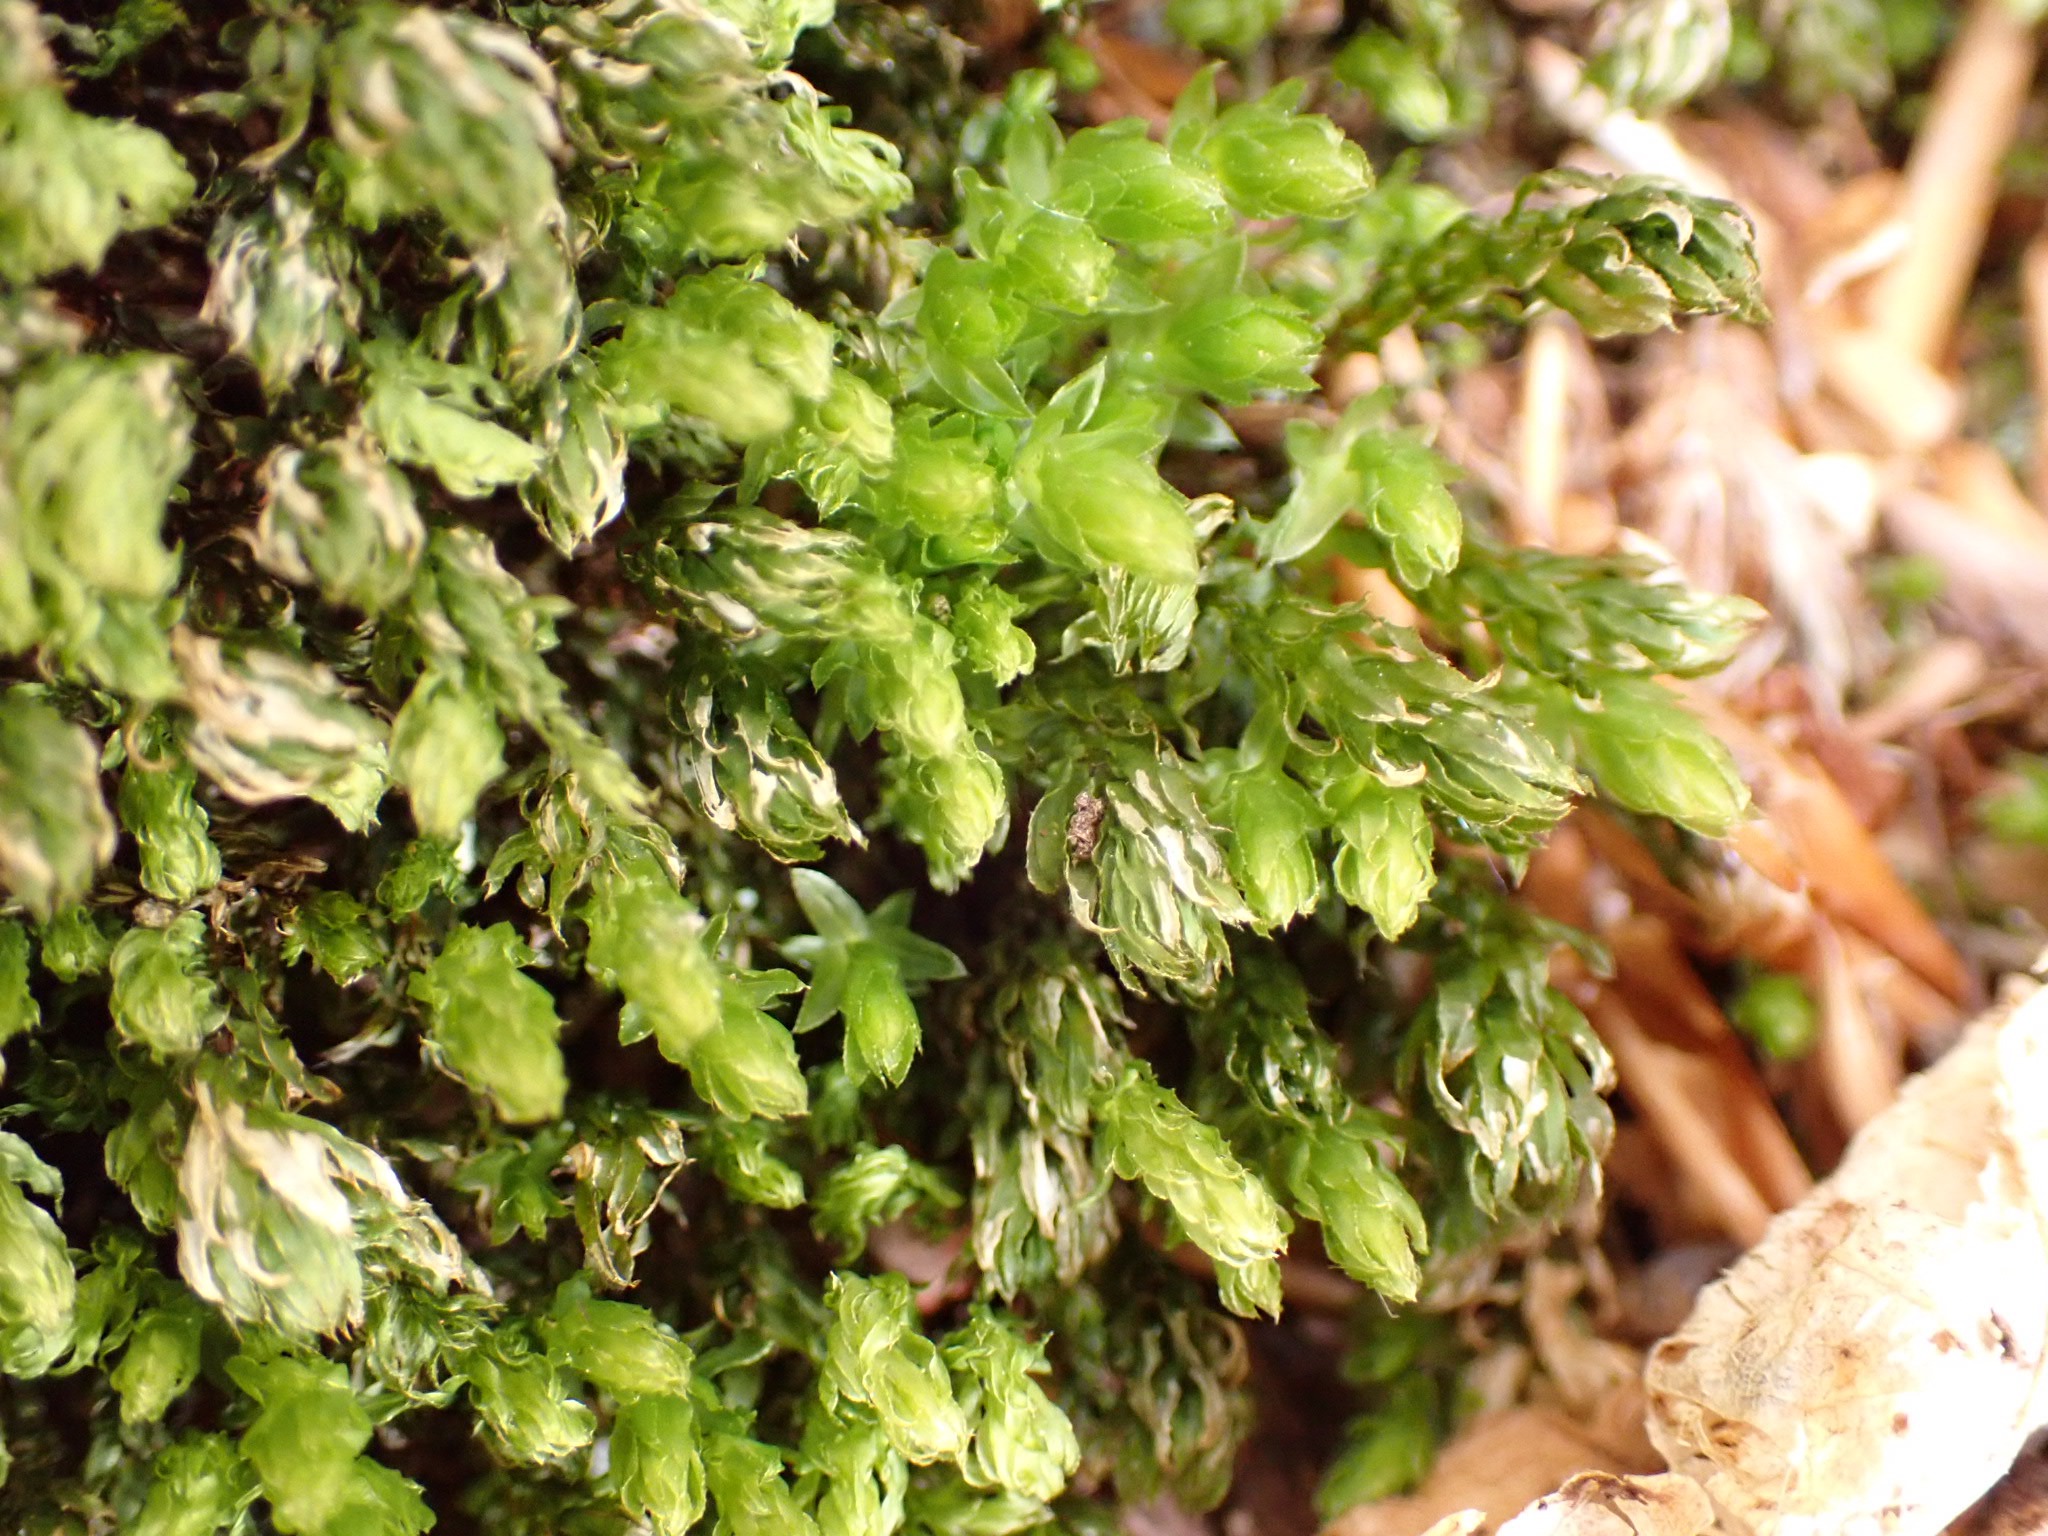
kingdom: Plantae
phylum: Bryophyta
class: Bryopsida
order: Bryales
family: Mniaceae
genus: Mnium
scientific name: Mnium hornum
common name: Brunfiltet stjernemos
